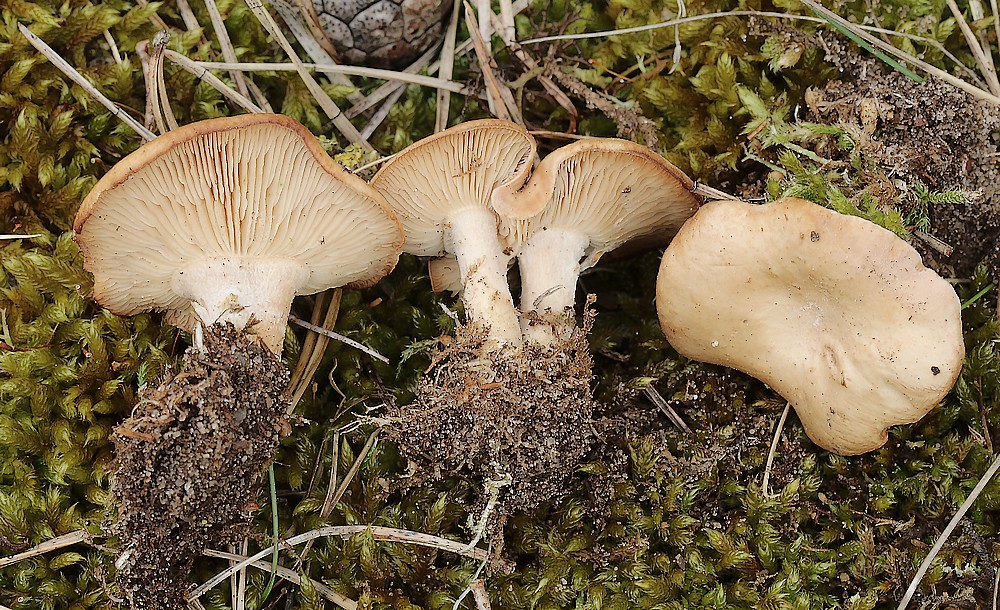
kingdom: Fungi
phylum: Basidiomycota
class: Agaricomycetes
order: Agaricales
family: Tricholomataceae
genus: Rhizocybe
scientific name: Rhizocybe vermicularis
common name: hyfestrengs-tragthat
